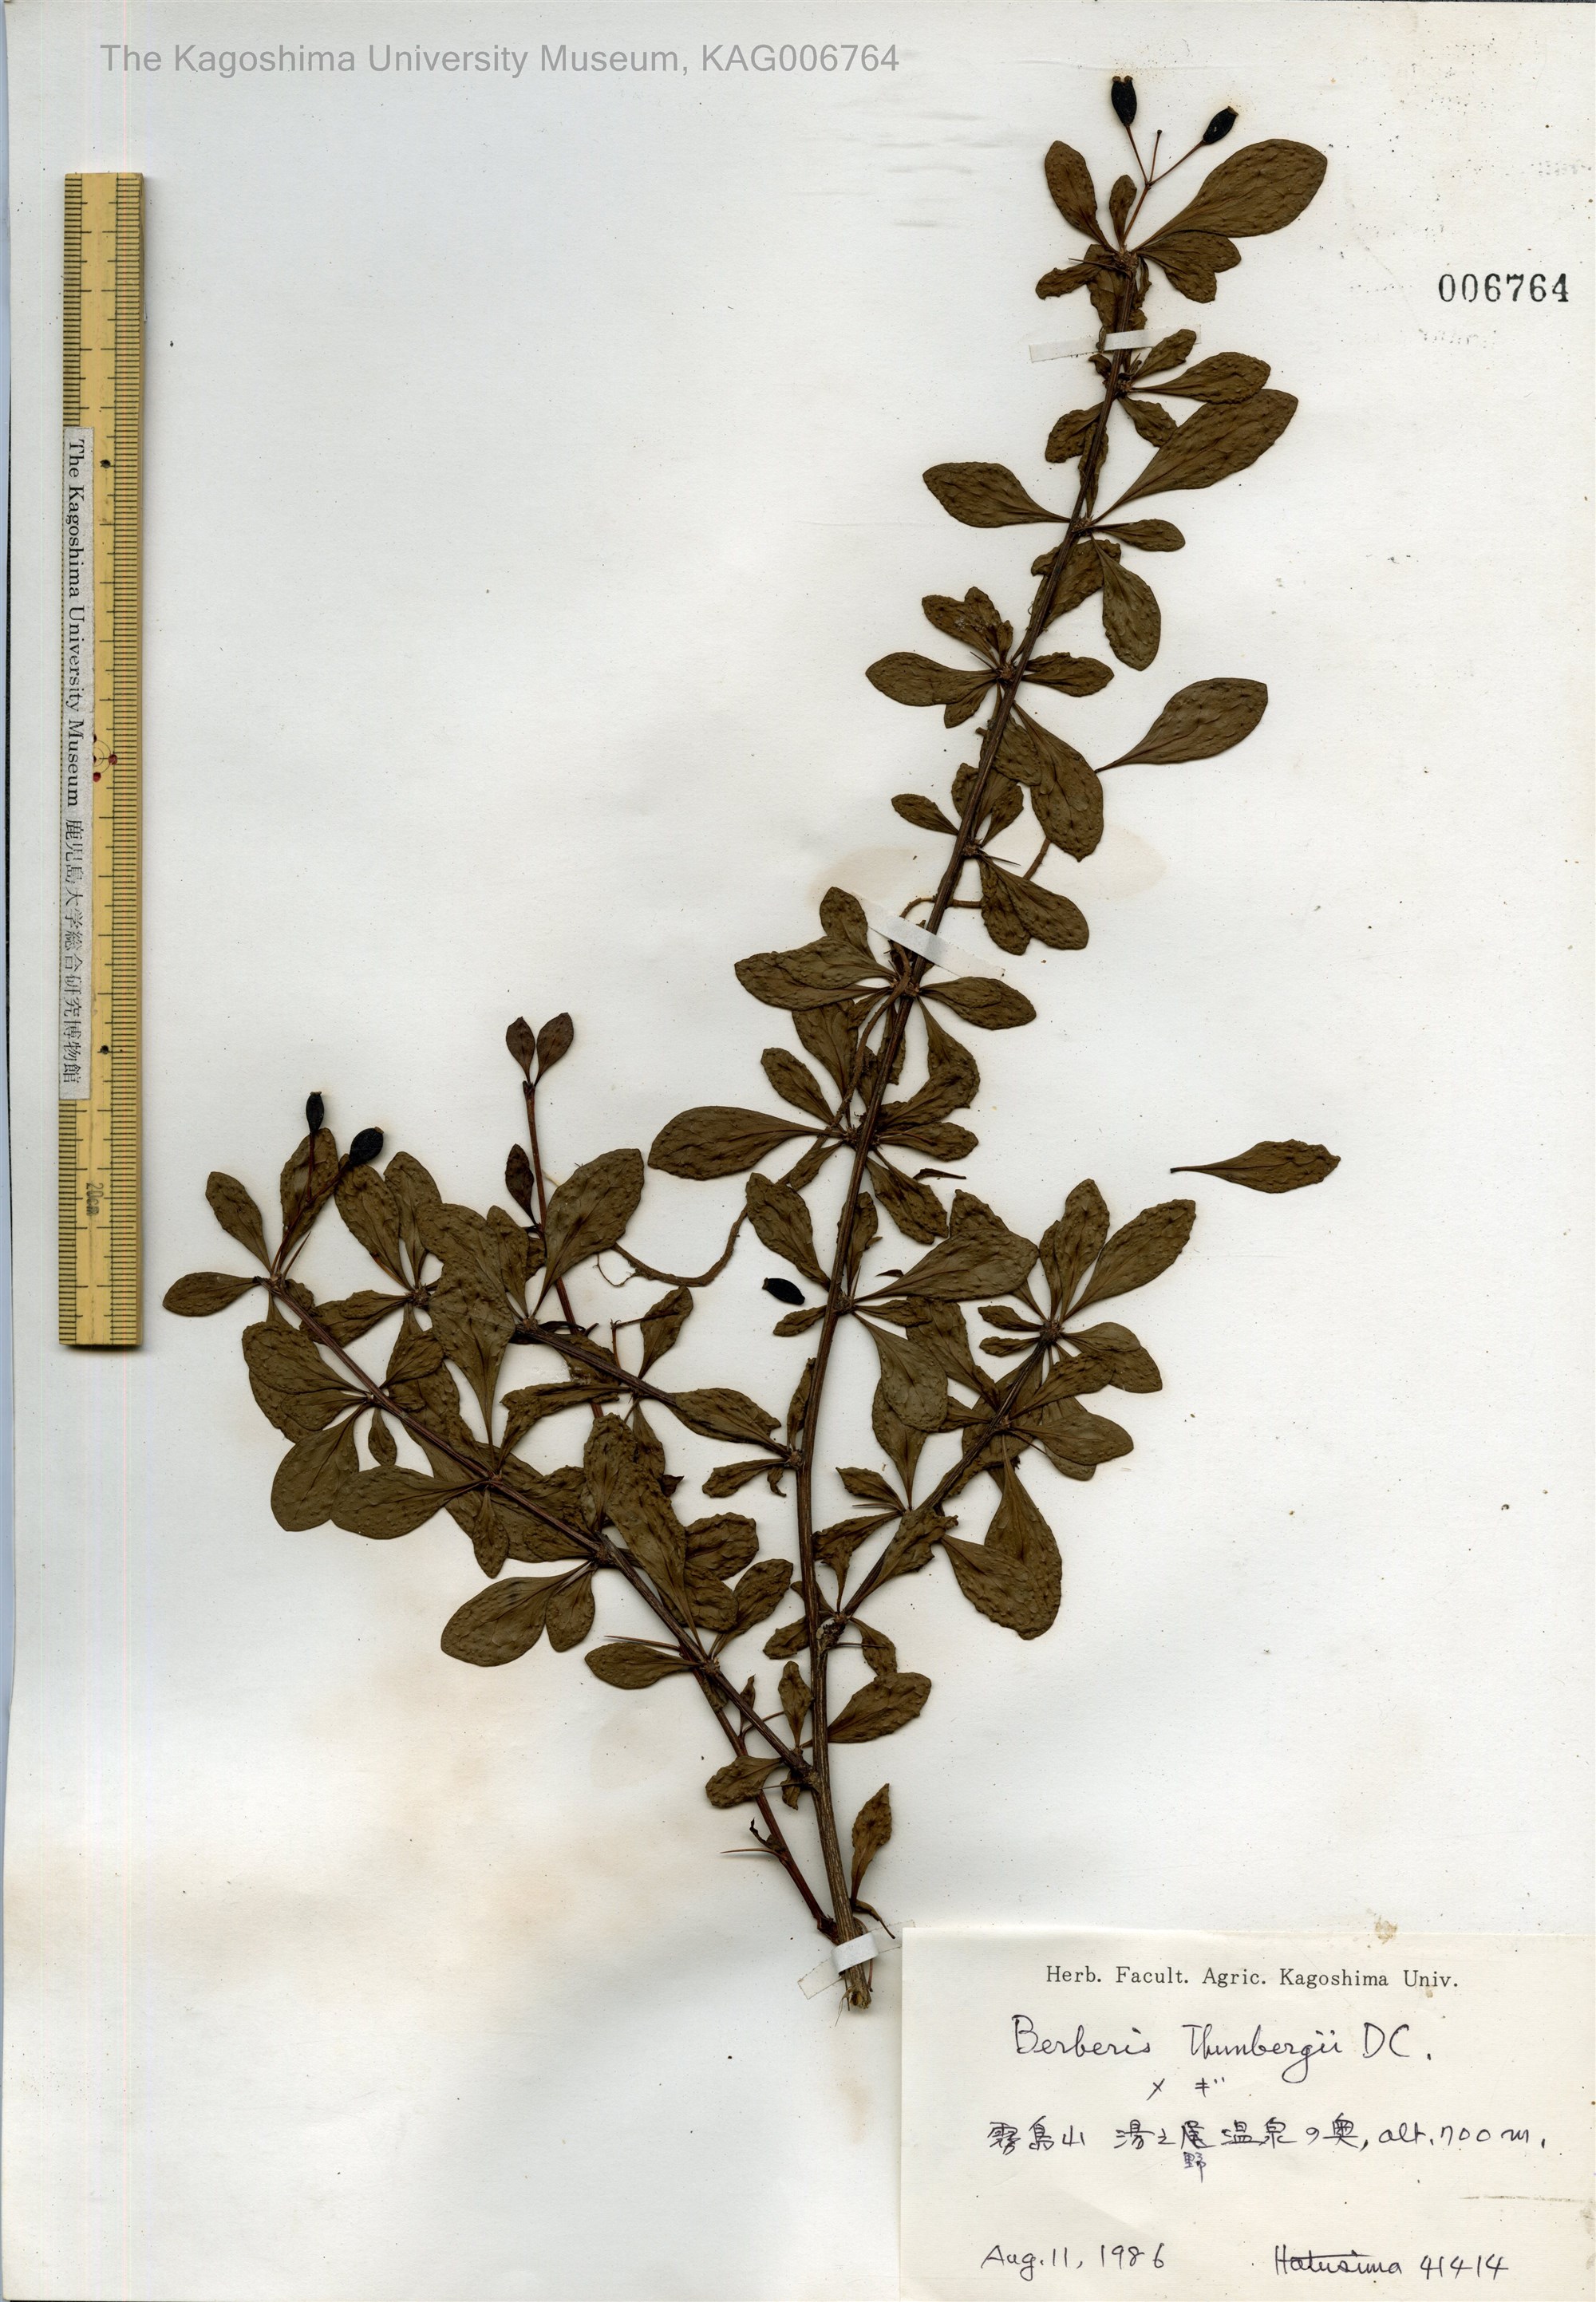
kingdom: Plantae
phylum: Tracheophyta
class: Magnoliopsida
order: Ranunculales
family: Berberidaceae
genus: Berberis
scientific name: Berberis thunbergii
